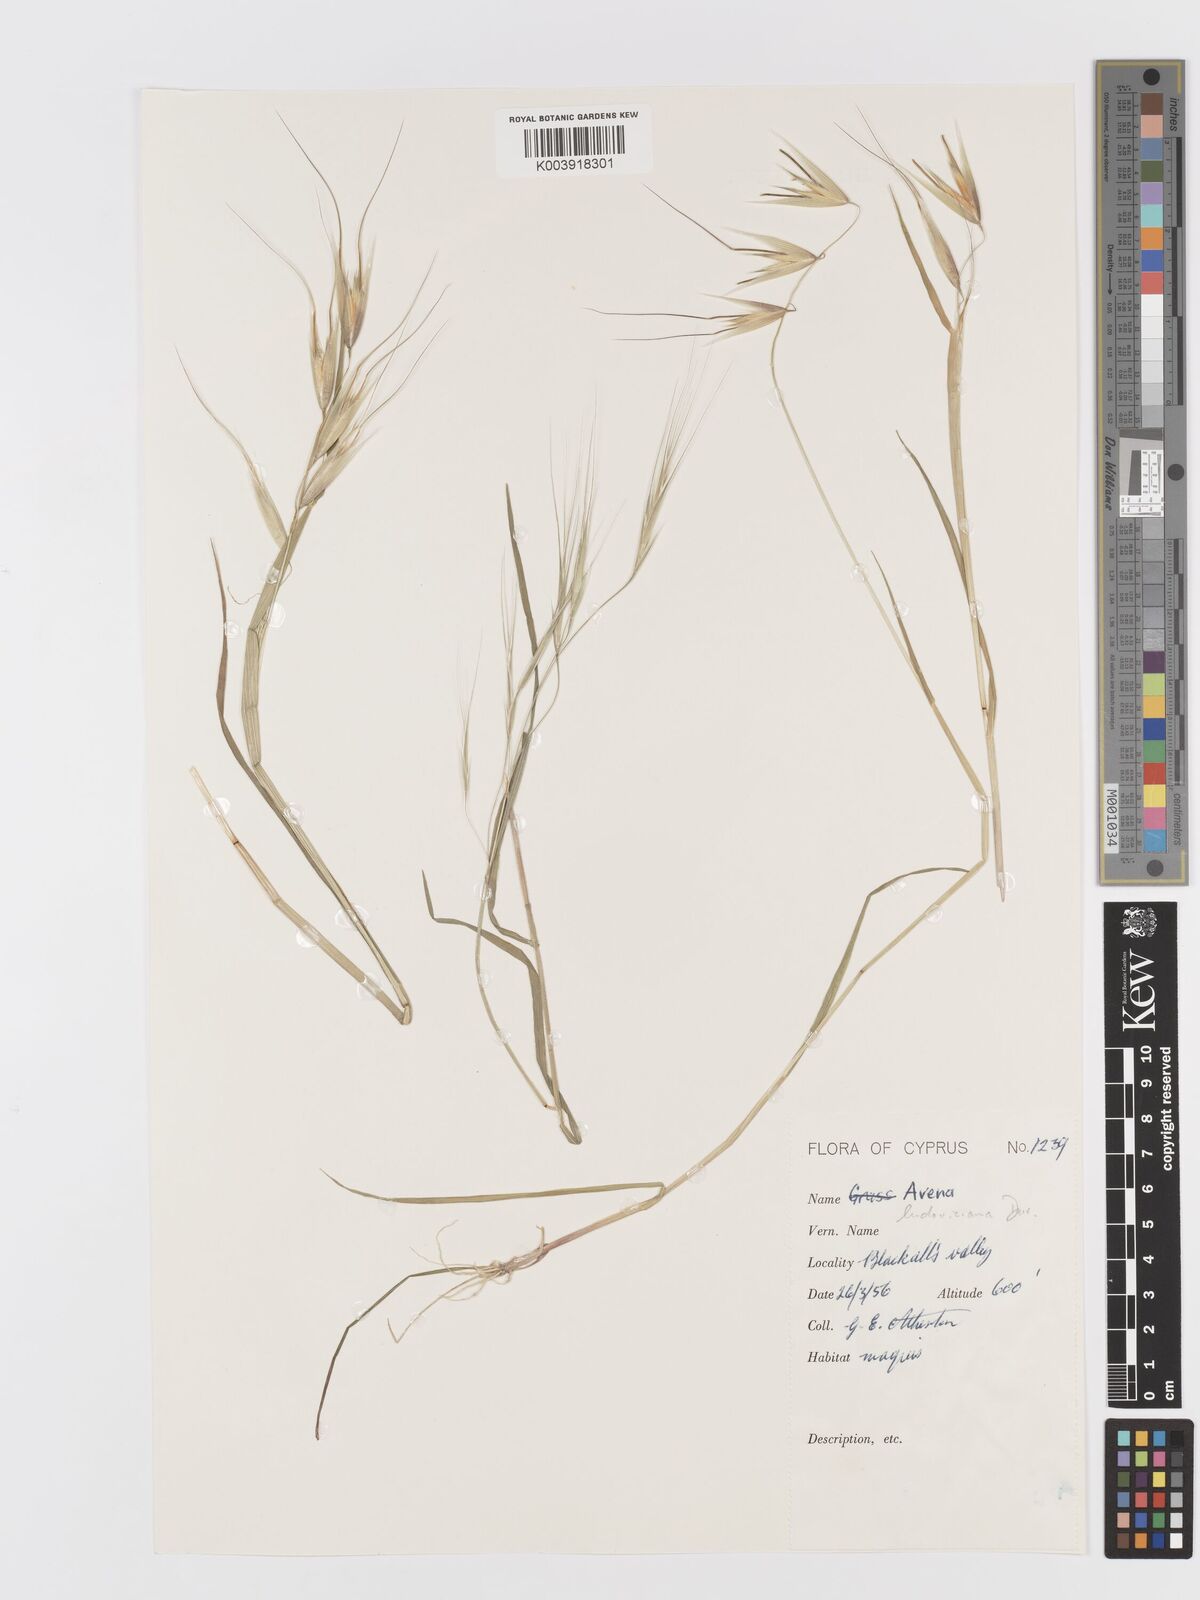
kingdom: Plantae
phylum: Tracheophyta
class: Liliopsida
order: Poales
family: Poaceae
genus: Avena
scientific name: Avena sterilis
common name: Animated oat
